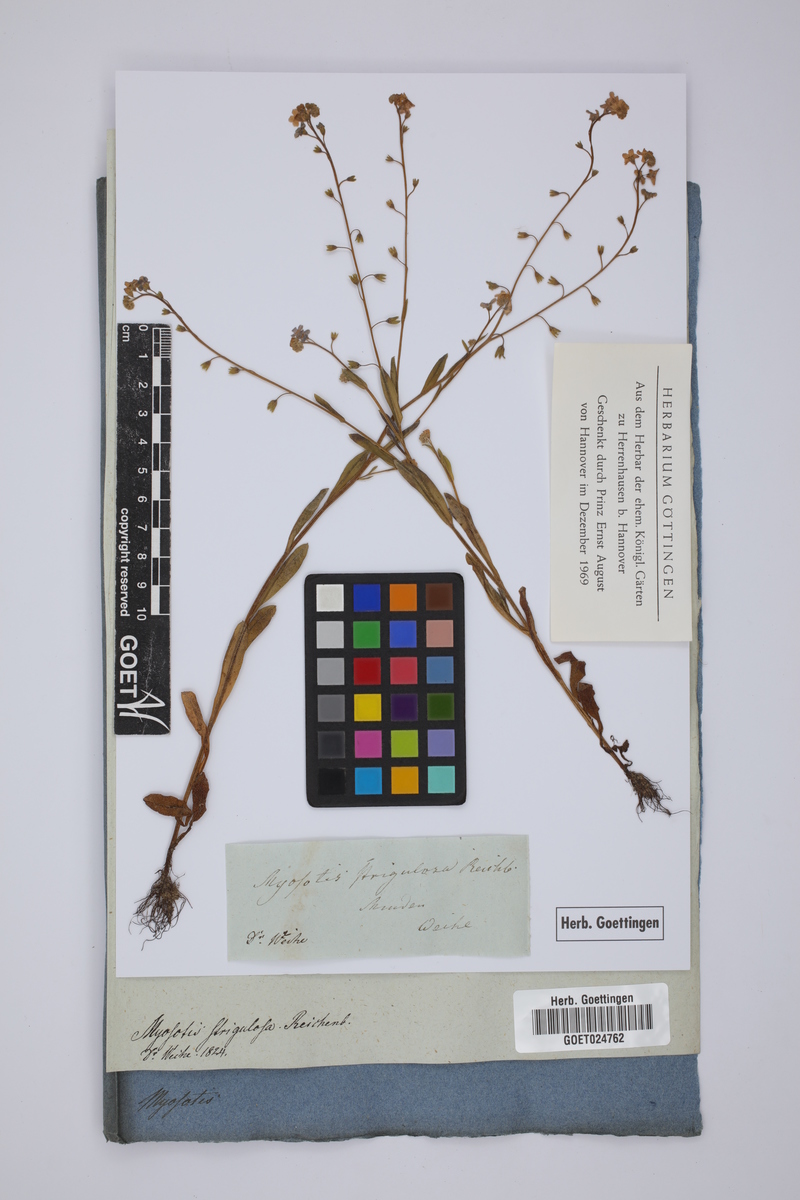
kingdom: Plantae
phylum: Tracheophyta
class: Magnoliopsida
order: Boraginales
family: Boraginaceae
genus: Myosotis
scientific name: Myosotis nemorosa
